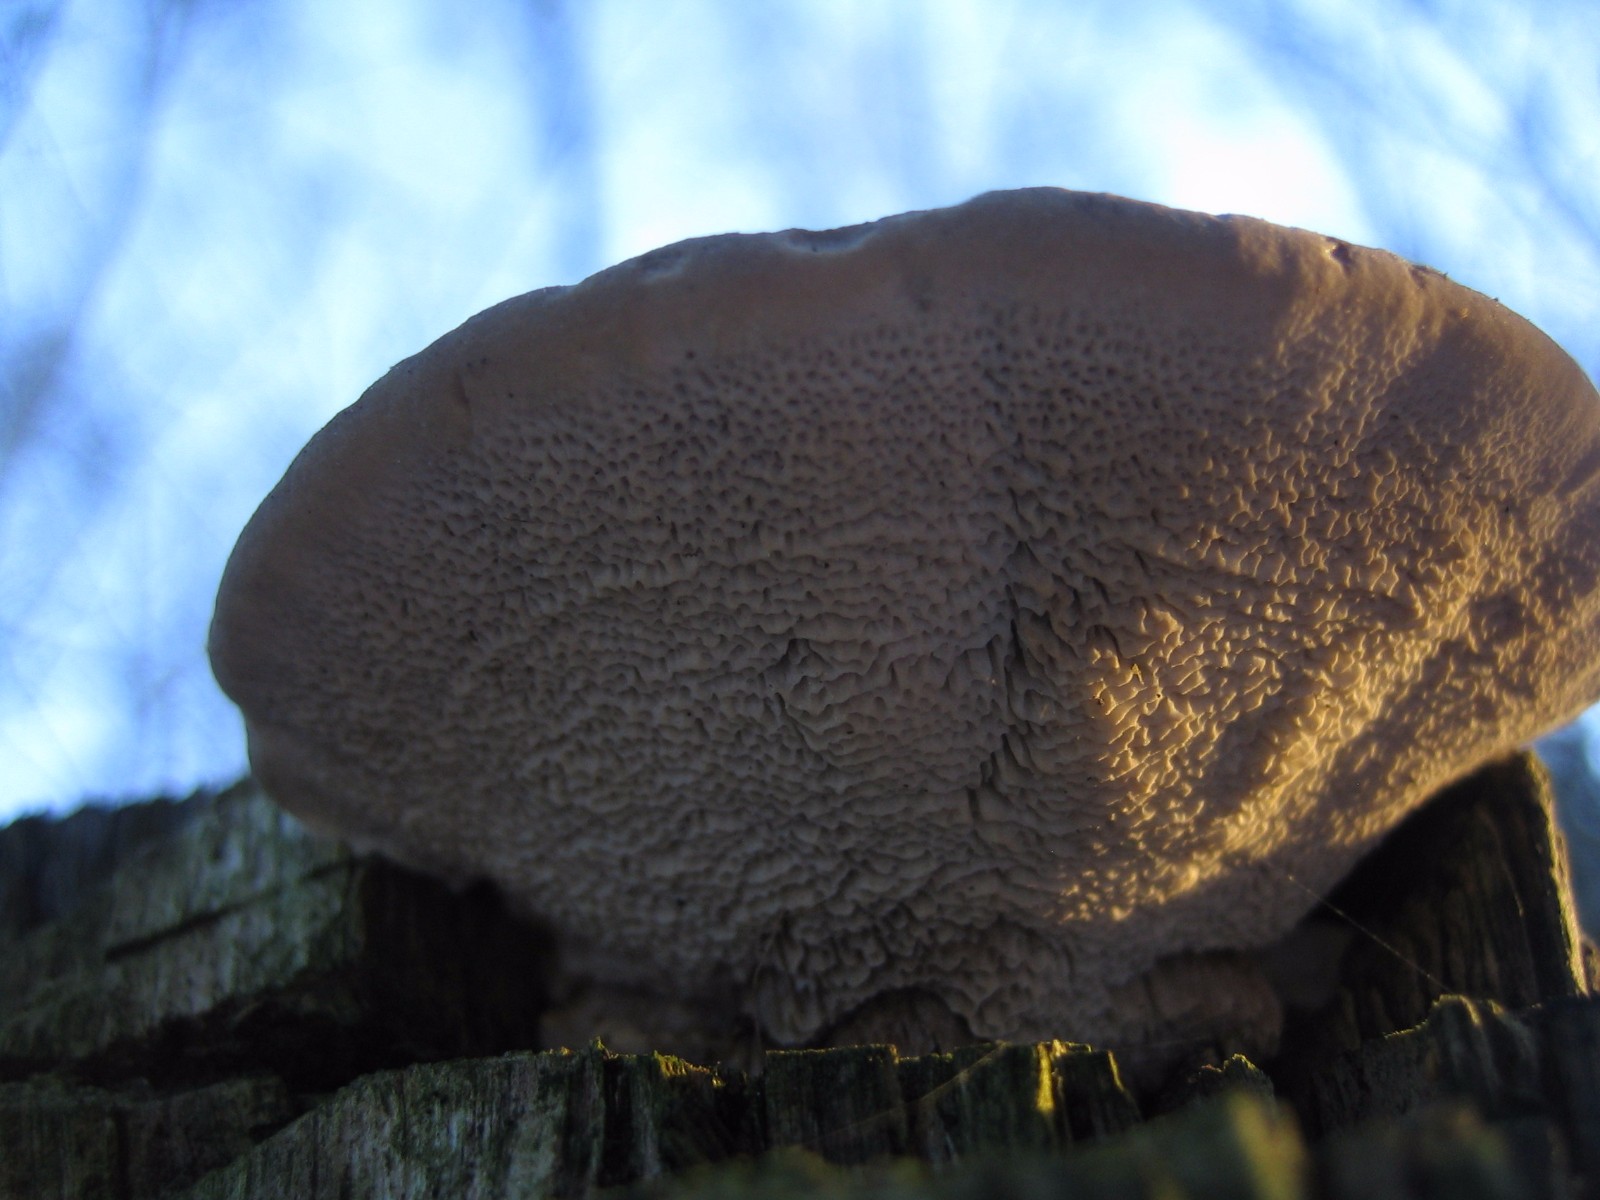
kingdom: Fungi
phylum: Basidiomycota
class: Agaricomycetes
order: Polyporales
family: Polyporaceae
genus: Daedaleopsis
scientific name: Daedaleopsis confragosa
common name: rødmende læderporesvamp
